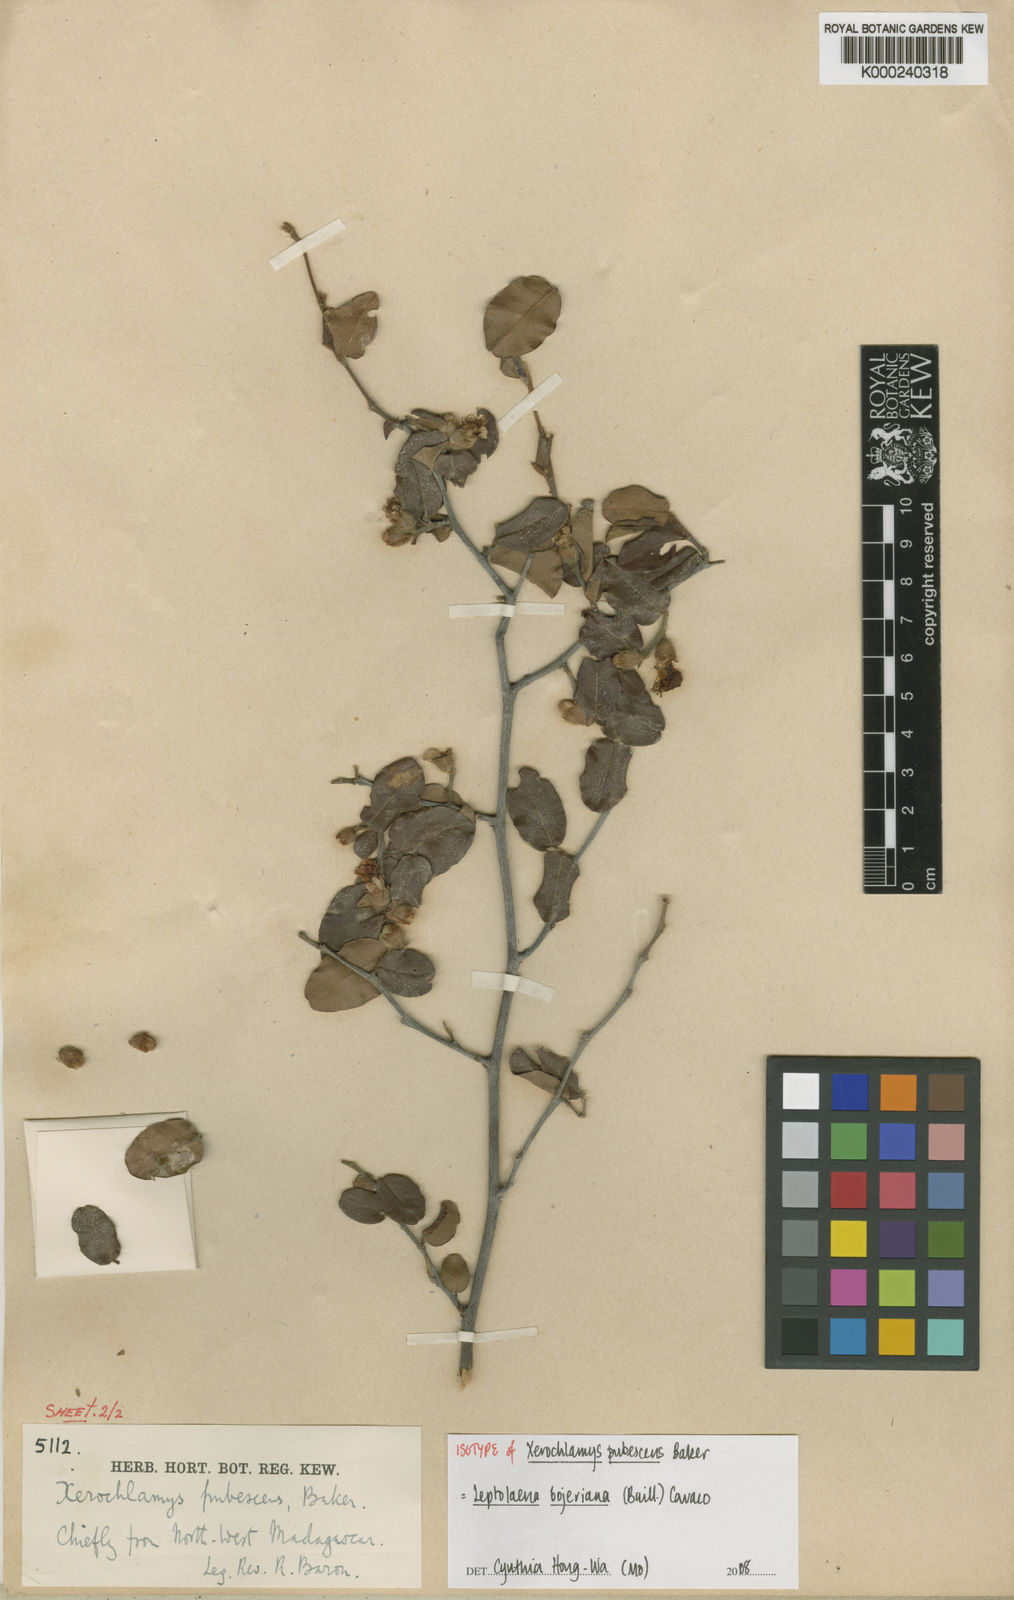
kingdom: Plantae
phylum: Tracheophyta
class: Magnoliopsida
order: Malvales
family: Sarcolaenaceae
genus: Xerochlamys
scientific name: Xerochlamys bojeriana
